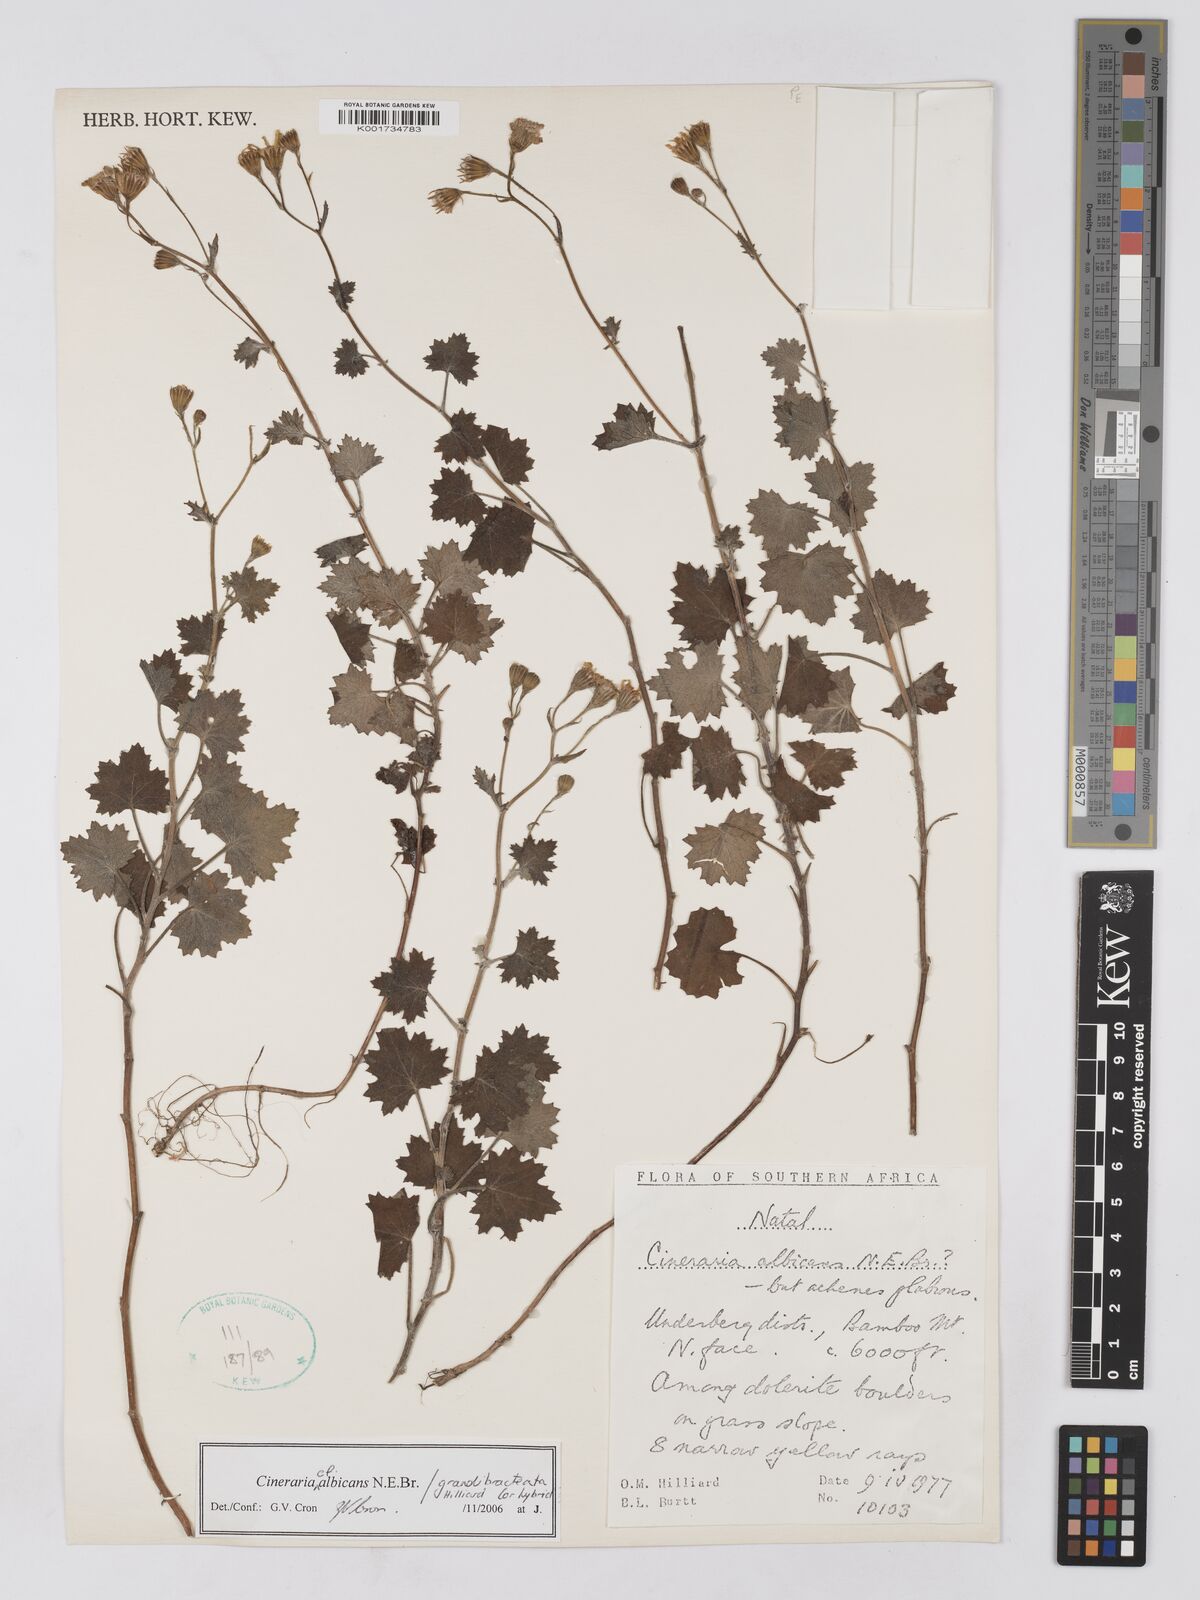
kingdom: Plantae
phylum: Tracheophyta
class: Magnoliopsida
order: Asterales
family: Asteraceae
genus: Cineraria
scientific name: Cineraria albicans
